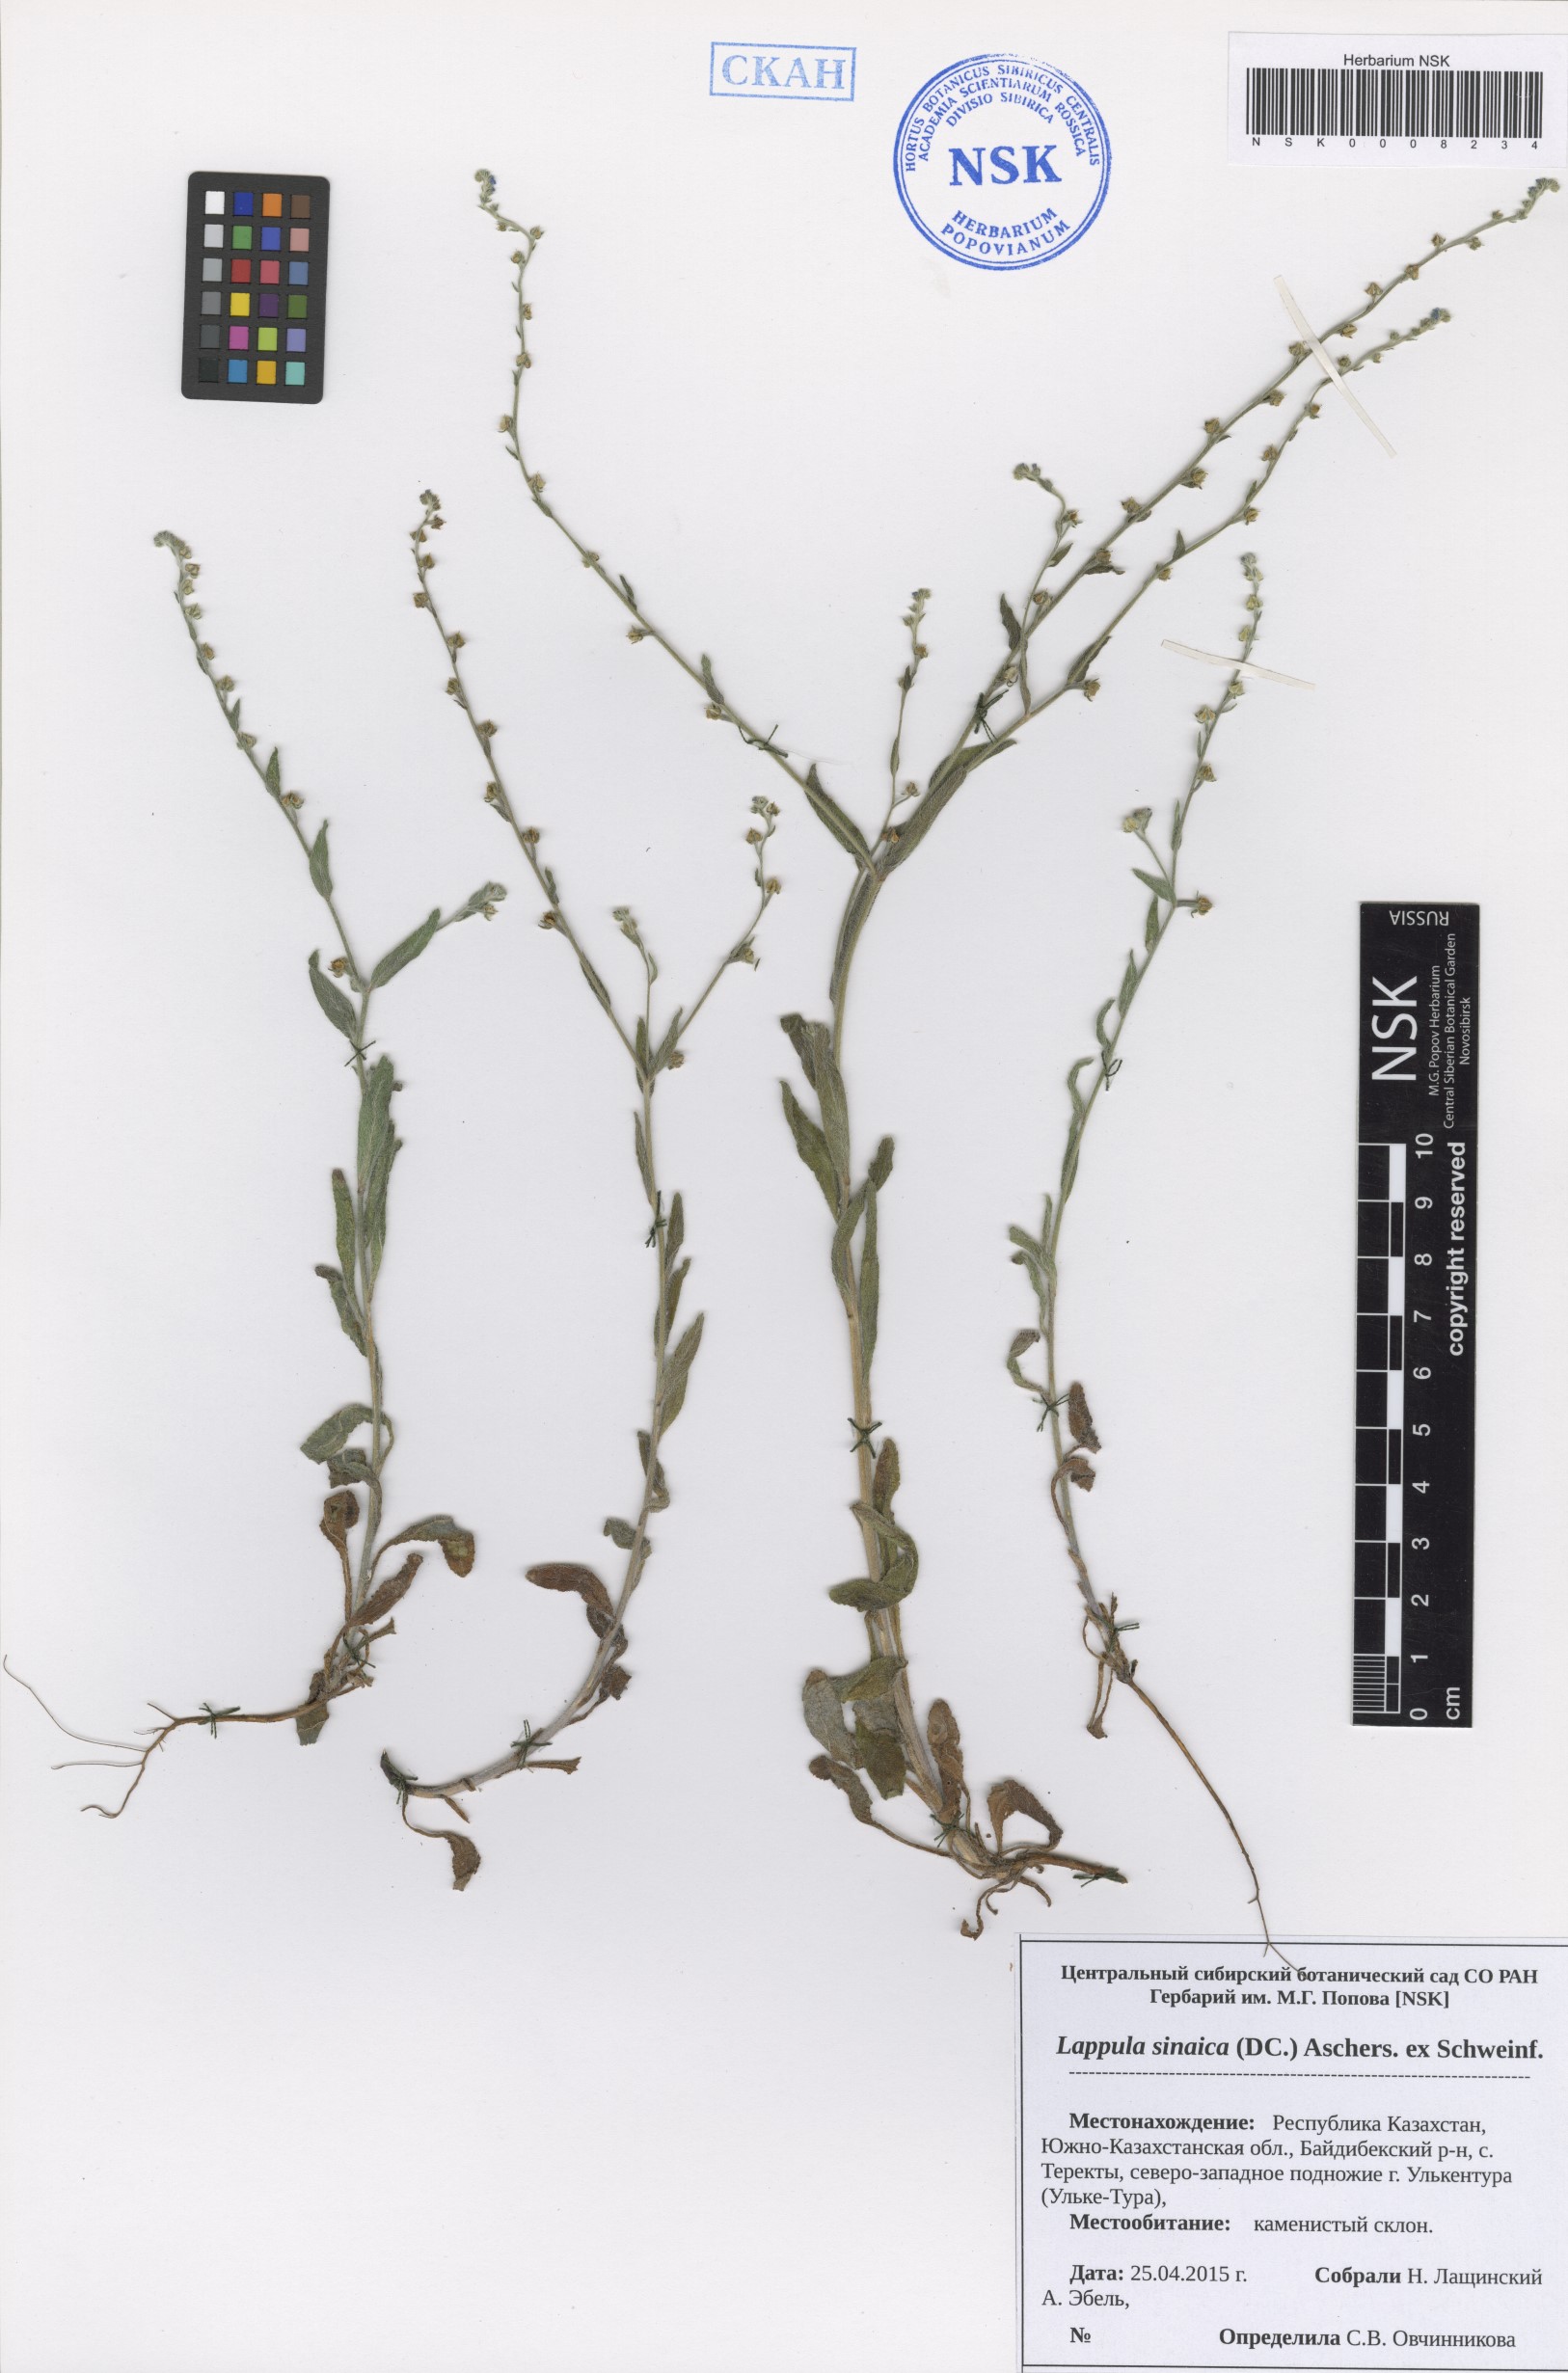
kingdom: Plantae
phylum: Tracheophyta
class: Magnoliopsida
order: Boraginales
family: Boraginaceae
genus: Pseudolappula
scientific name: Pseudolappula sinaica
